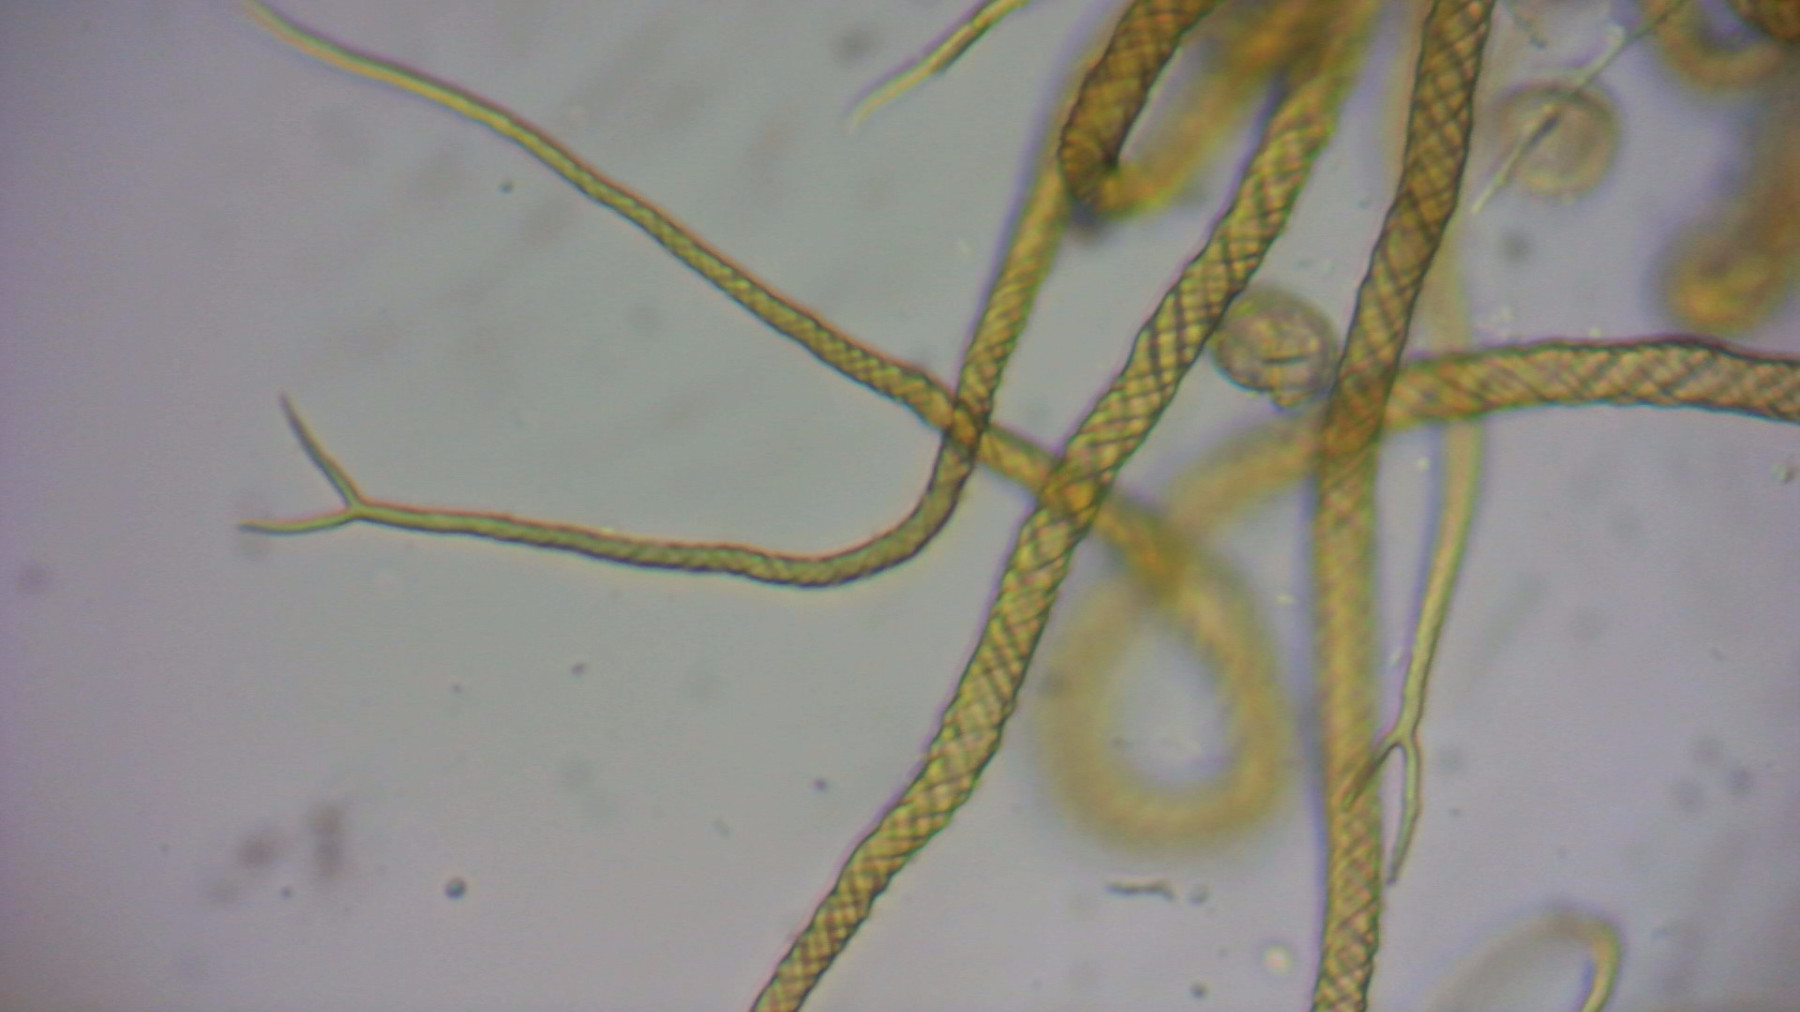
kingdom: Protozoa
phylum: Mycetozoa
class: Myxomycetes
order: Trichiales
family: Trichiaceae
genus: Trichia
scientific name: Trichia crateriformis
